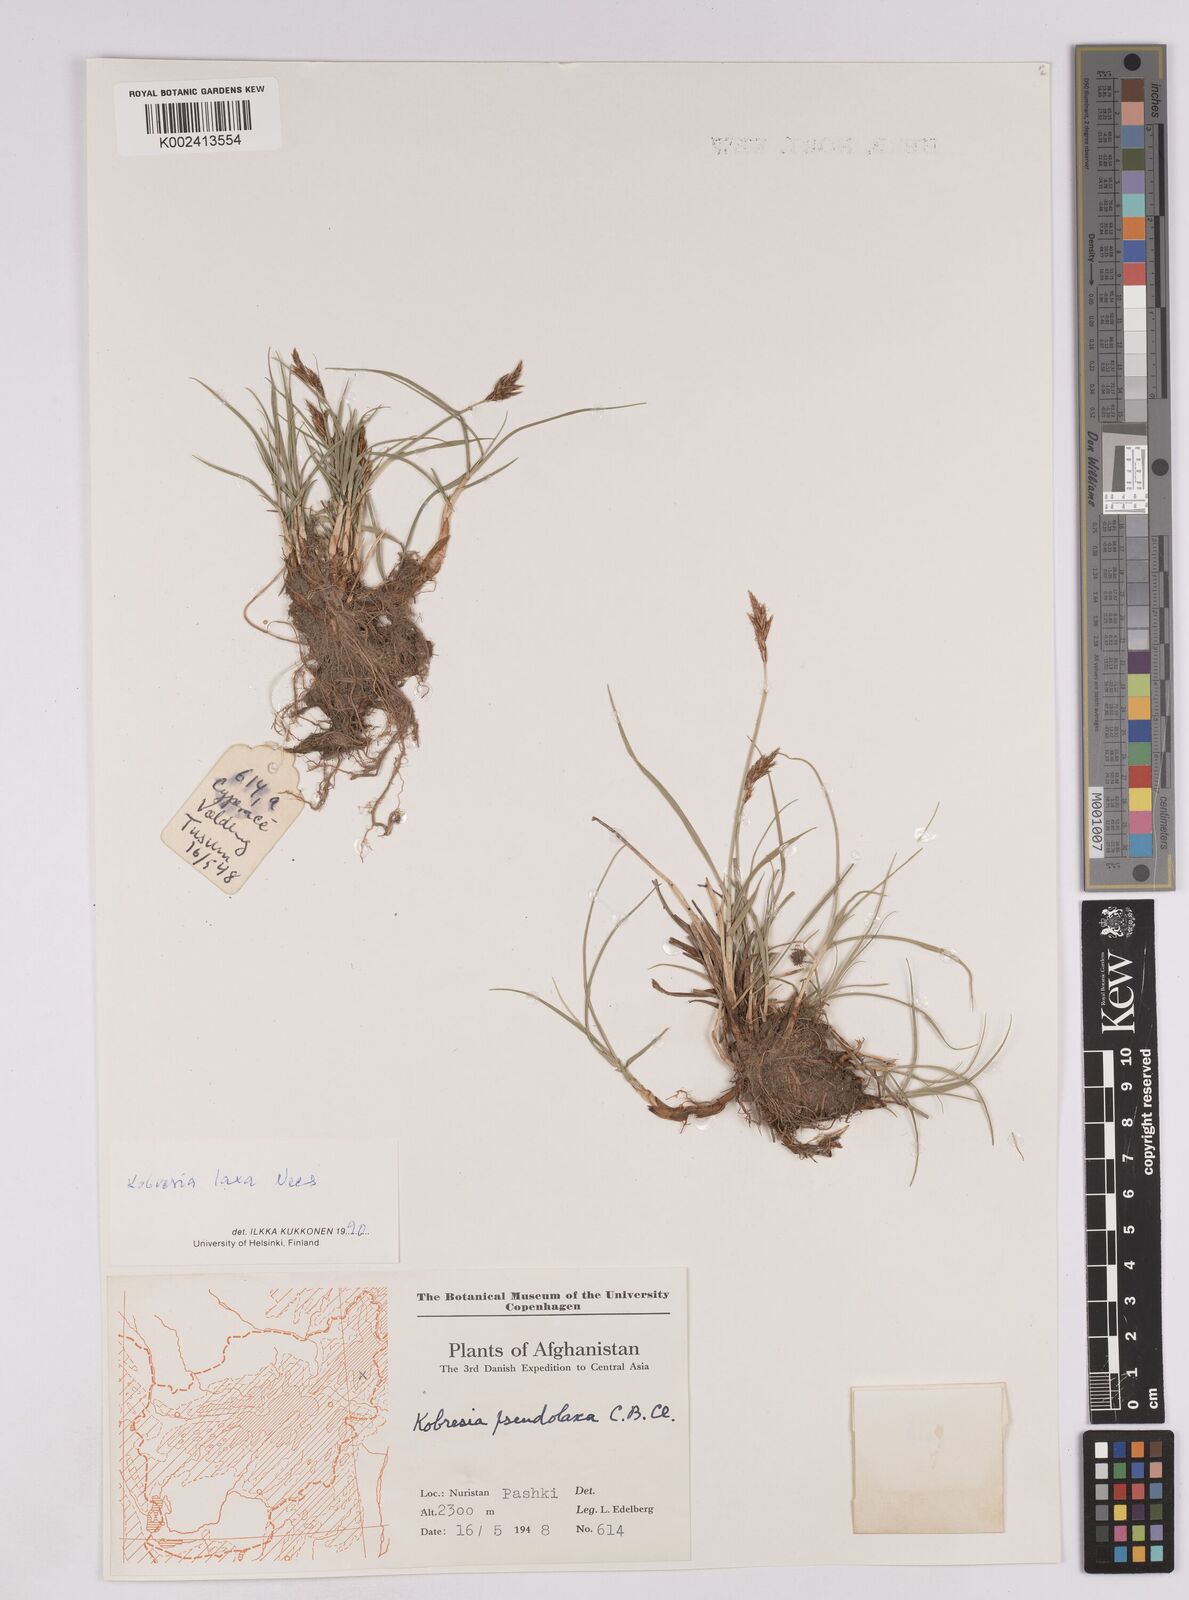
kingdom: Plantae
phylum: Tracheophyta
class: Liliopsida
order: Poales
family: Cyperaceae
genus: Carex
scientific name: Carex pseudolaxa
